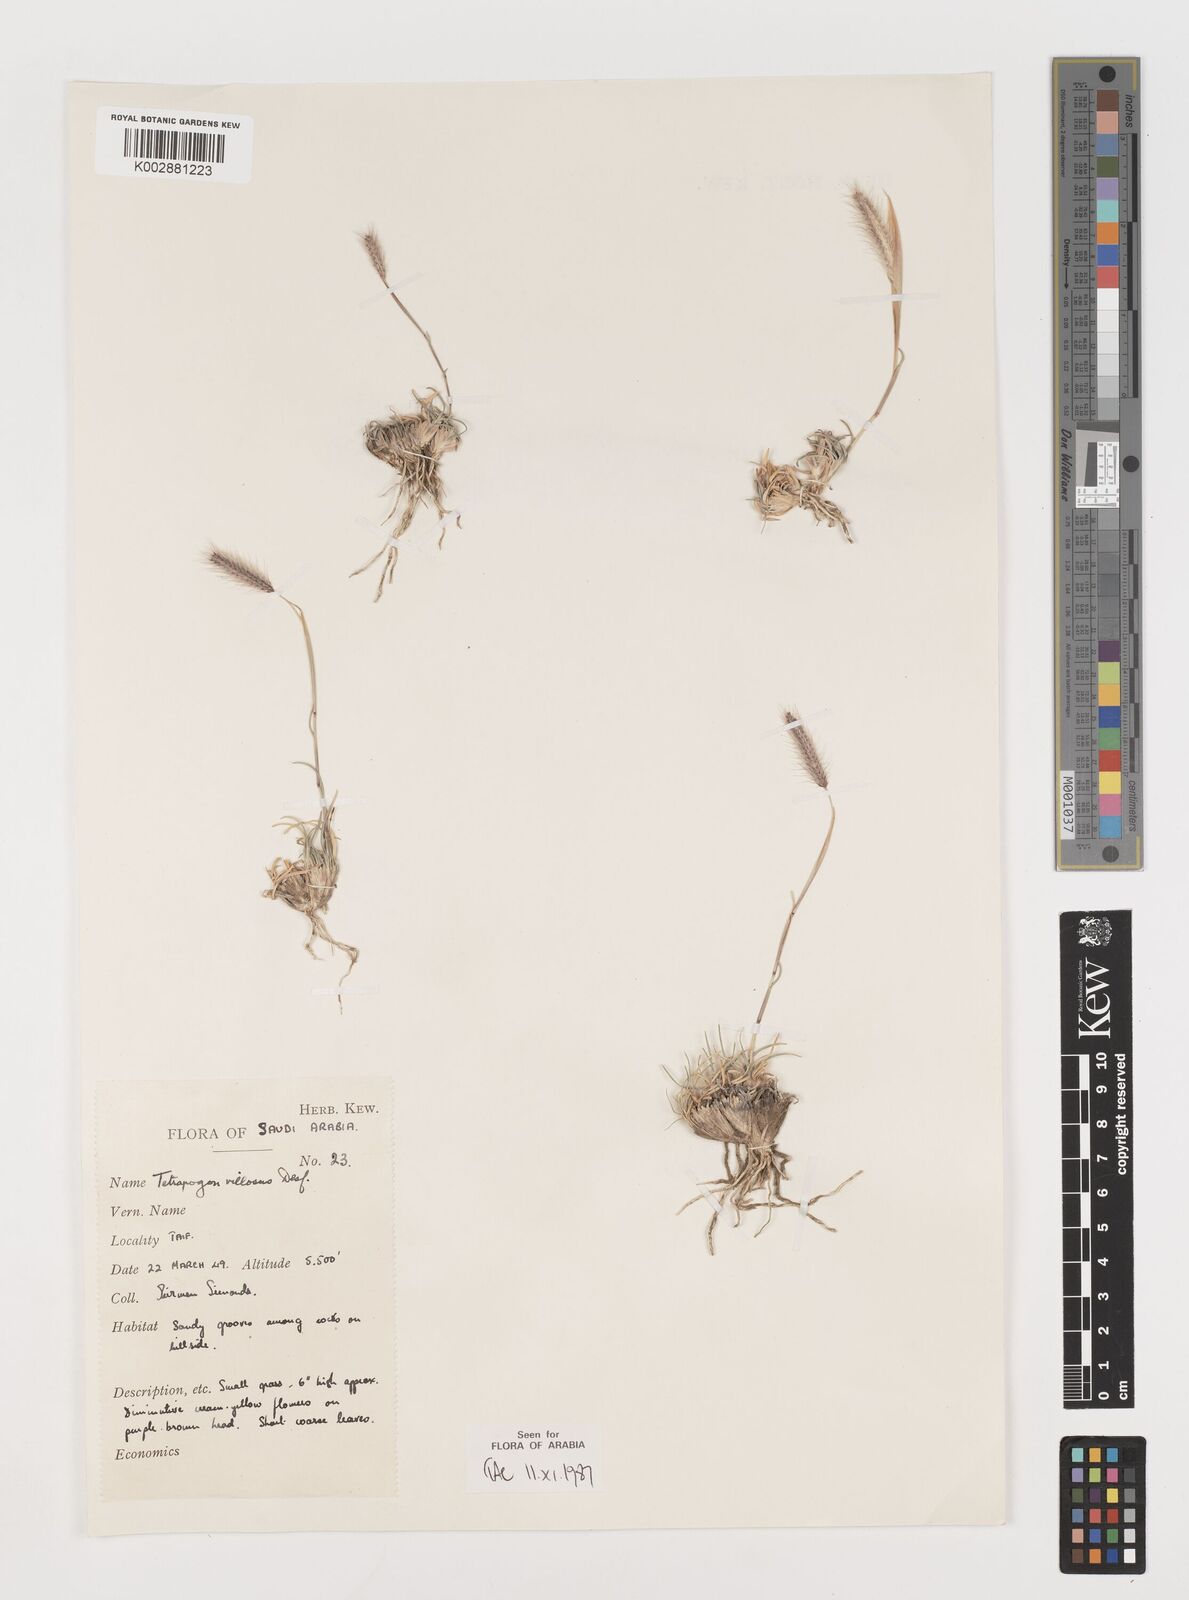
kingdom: Plantae
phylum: Tracheophyta
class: Liliopsida
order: Poales
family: Poaceae
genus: Tetrapogon
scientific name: Tetrapogon villosus
